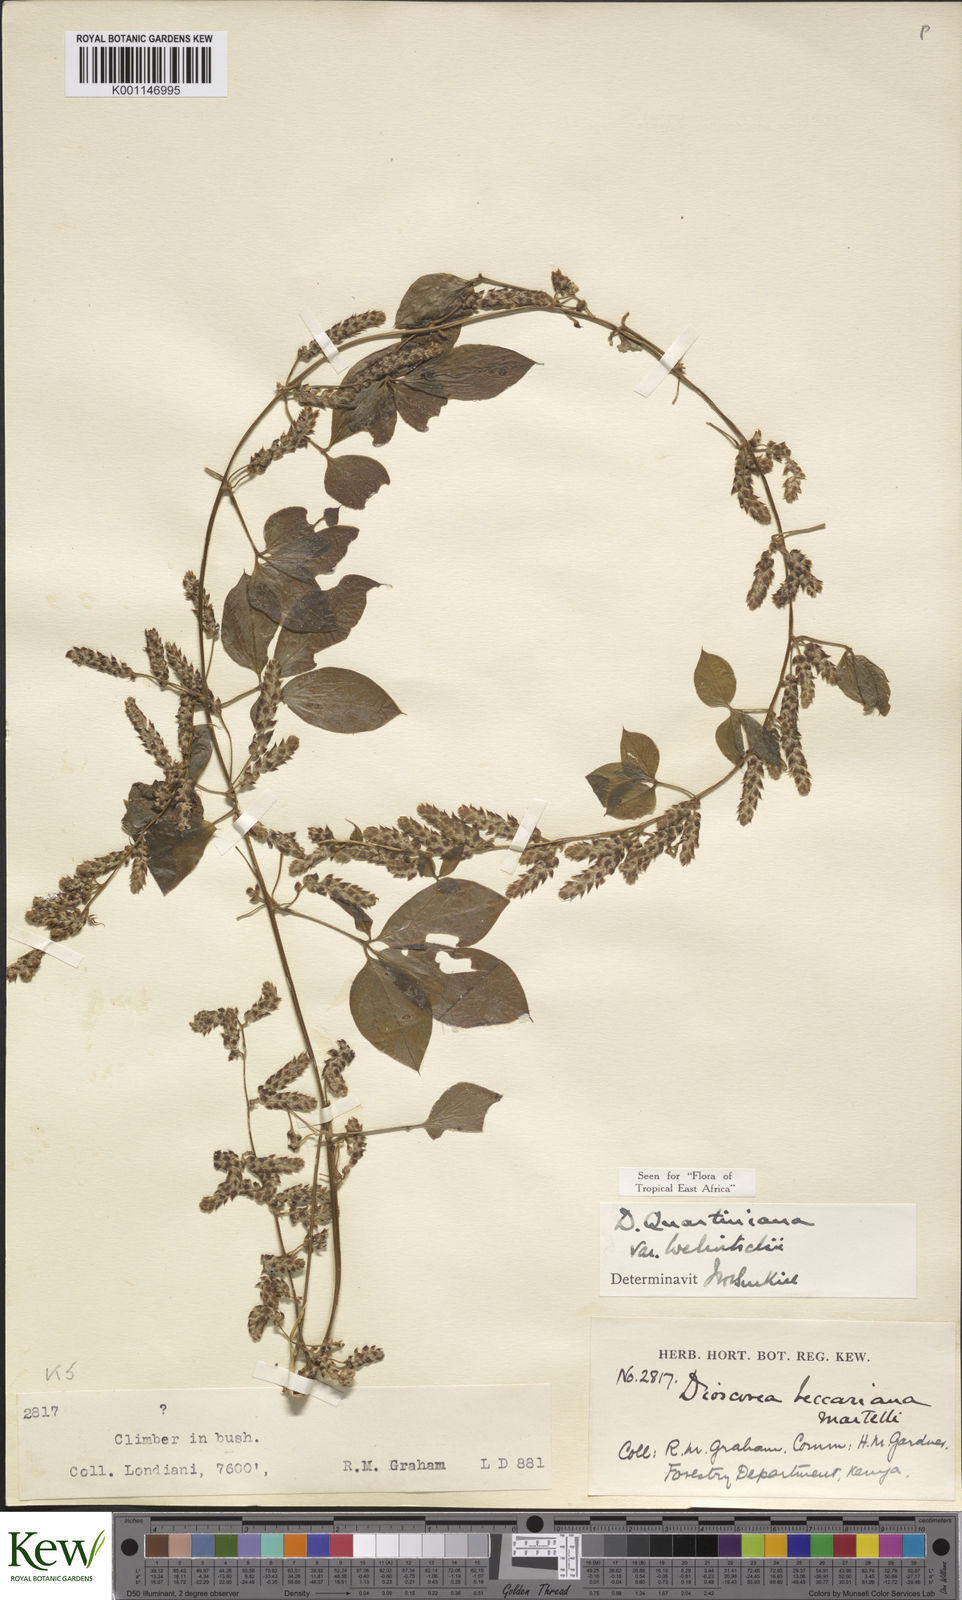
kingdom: Plantae
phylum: Tracheophyta
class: Liliopsida
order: Dioscoreales
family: Dioscoreaceae
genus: Dioscorea
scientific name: Dioscorea quartiniana
